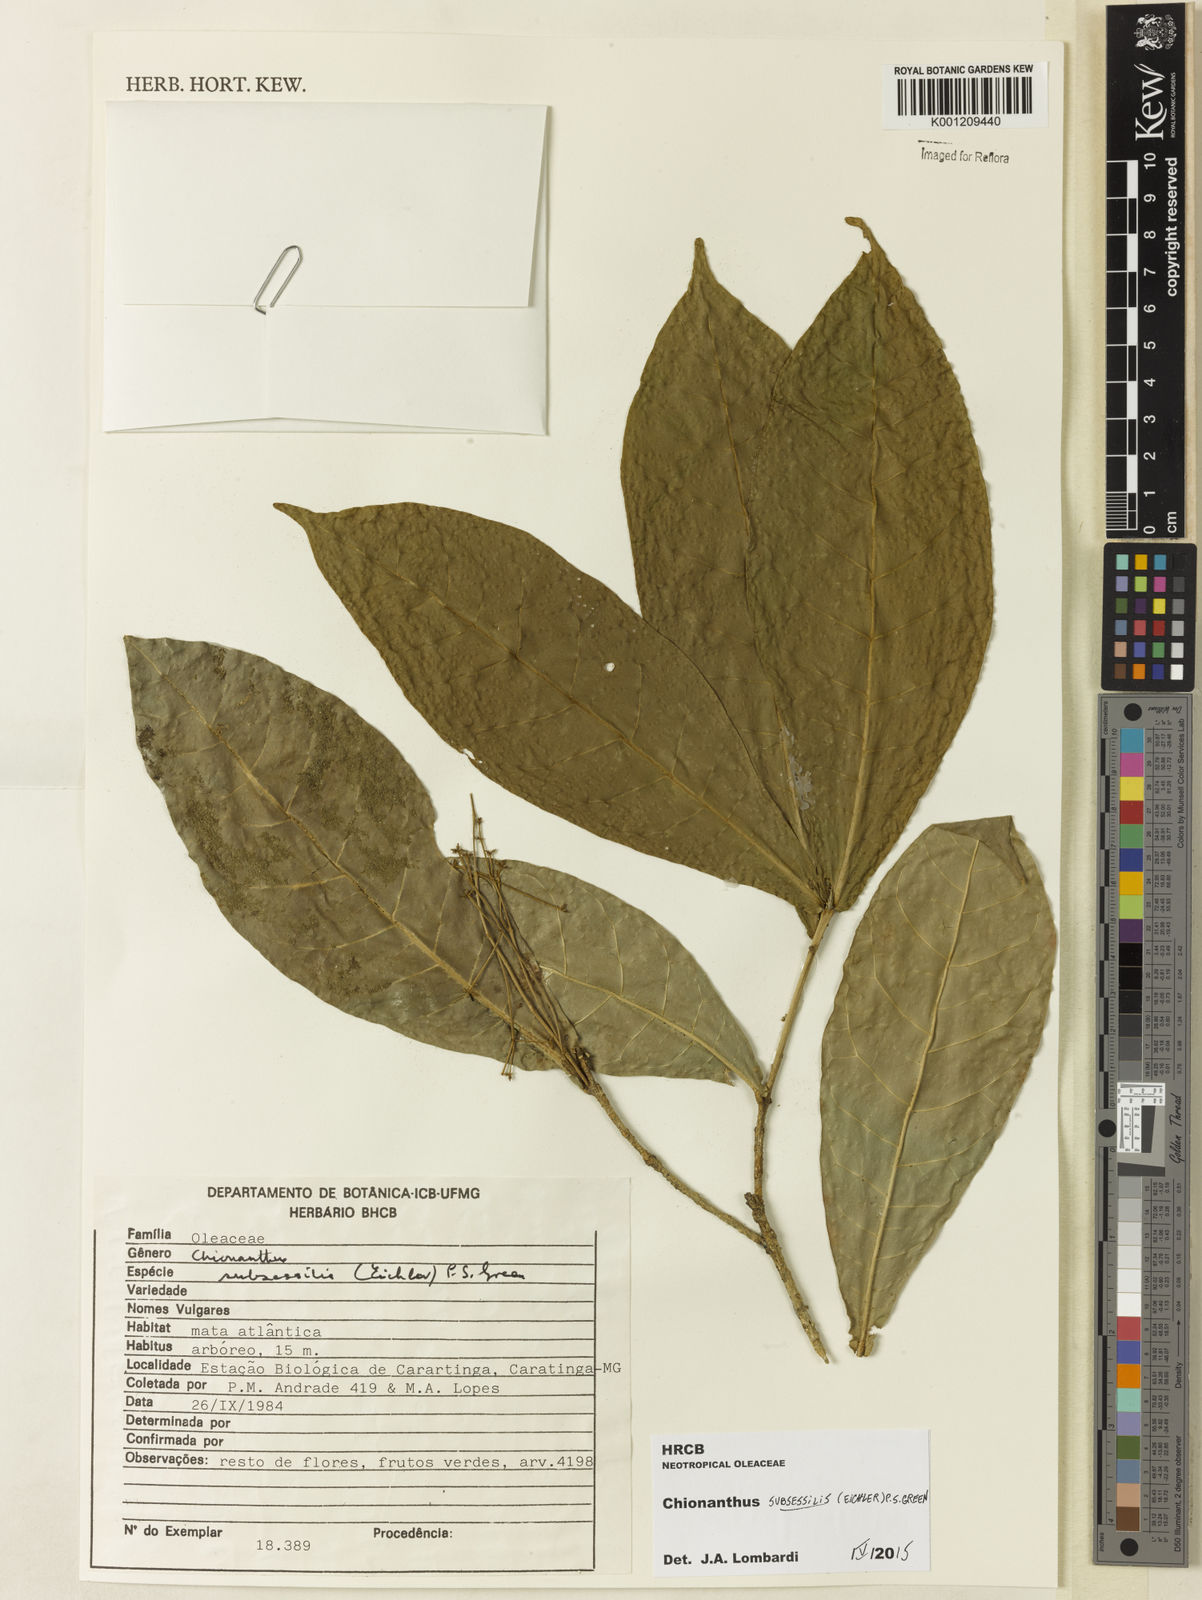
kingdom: Plantae
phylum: Tracheophyta
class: Magnoliopsida
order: Lamiales
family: Oleaceae
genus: Chionanthus
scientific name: Chionanthus subsessilis
